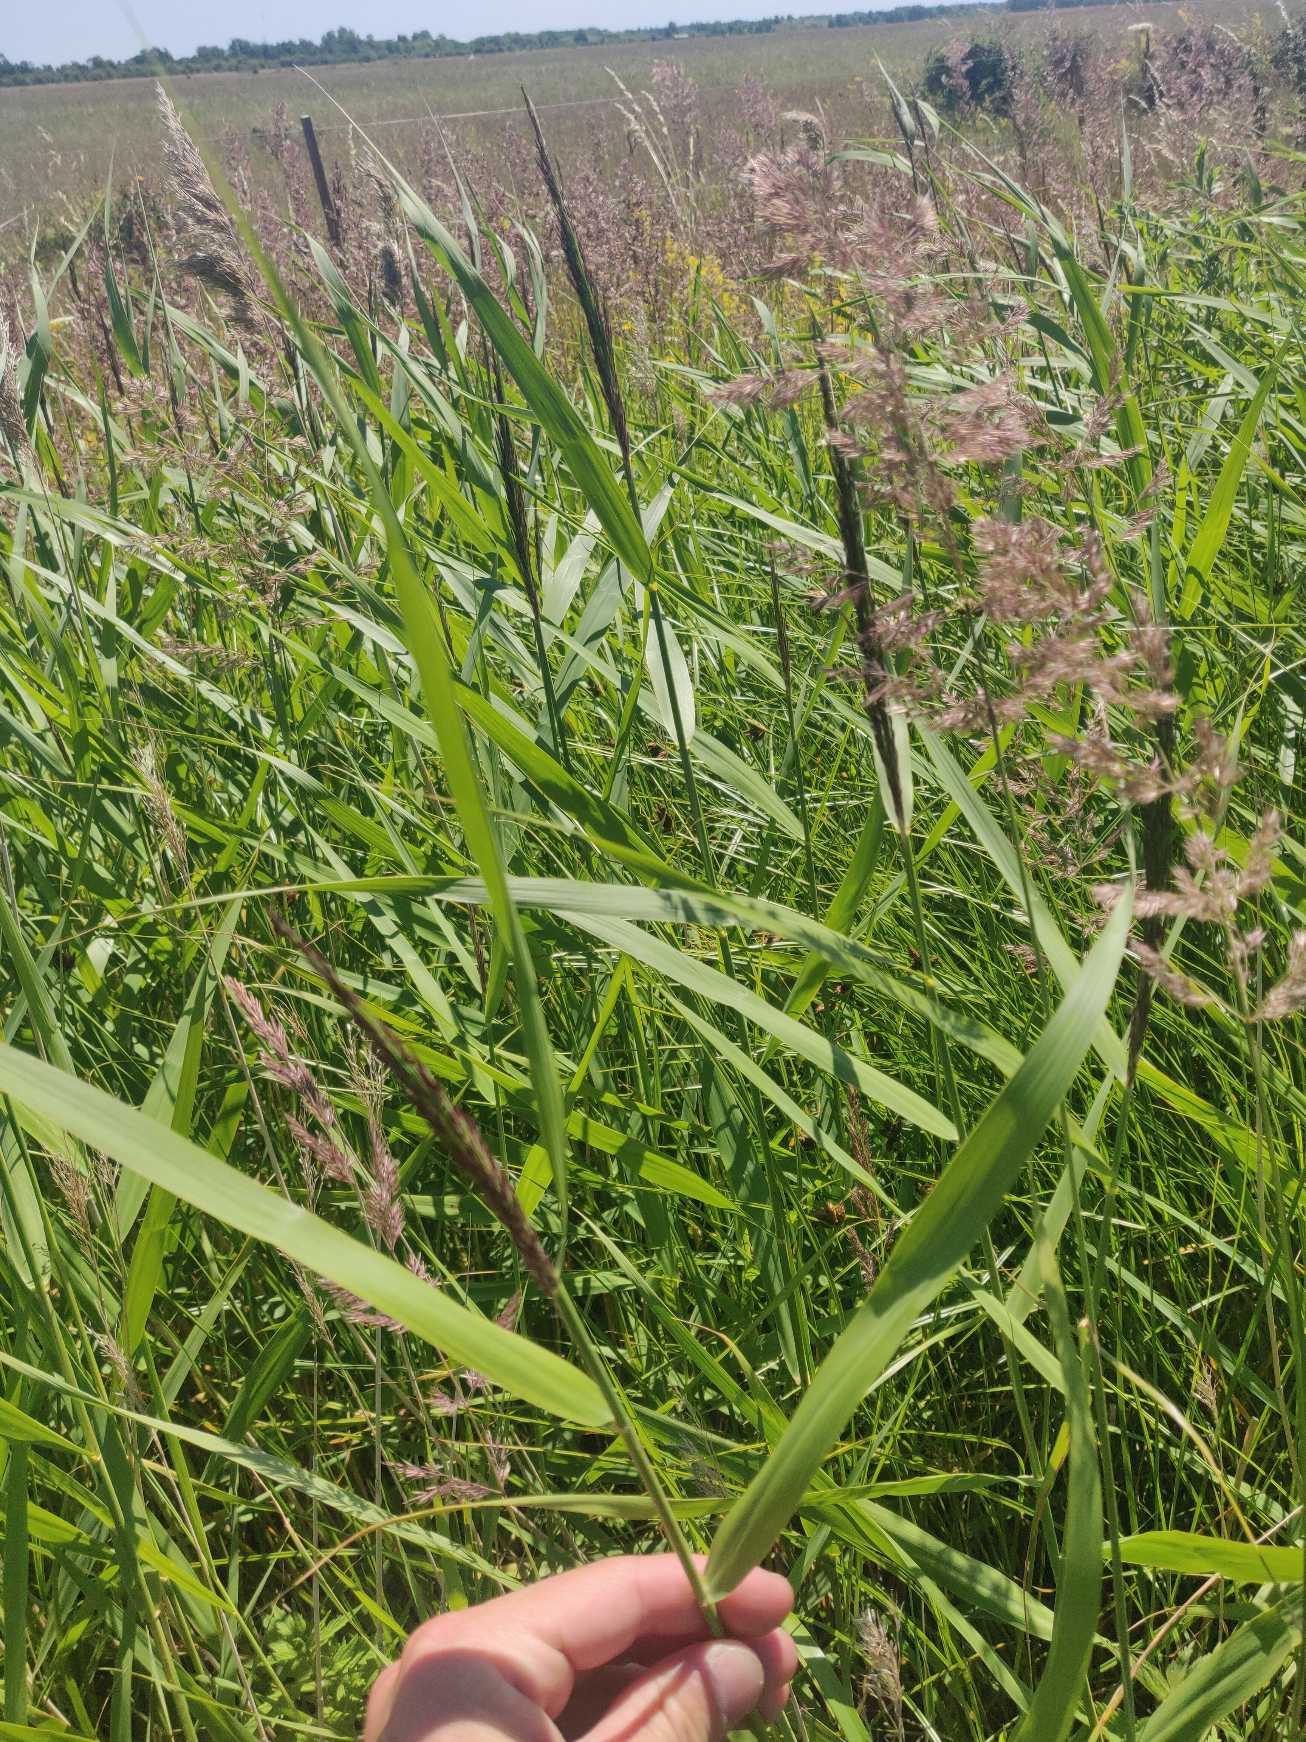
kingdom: Plantae
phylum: Tracheophyta
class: Liliopsida
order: Poales
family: Poaceae
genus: Phragmites
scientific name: Phragmites australis
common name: Tagrør
